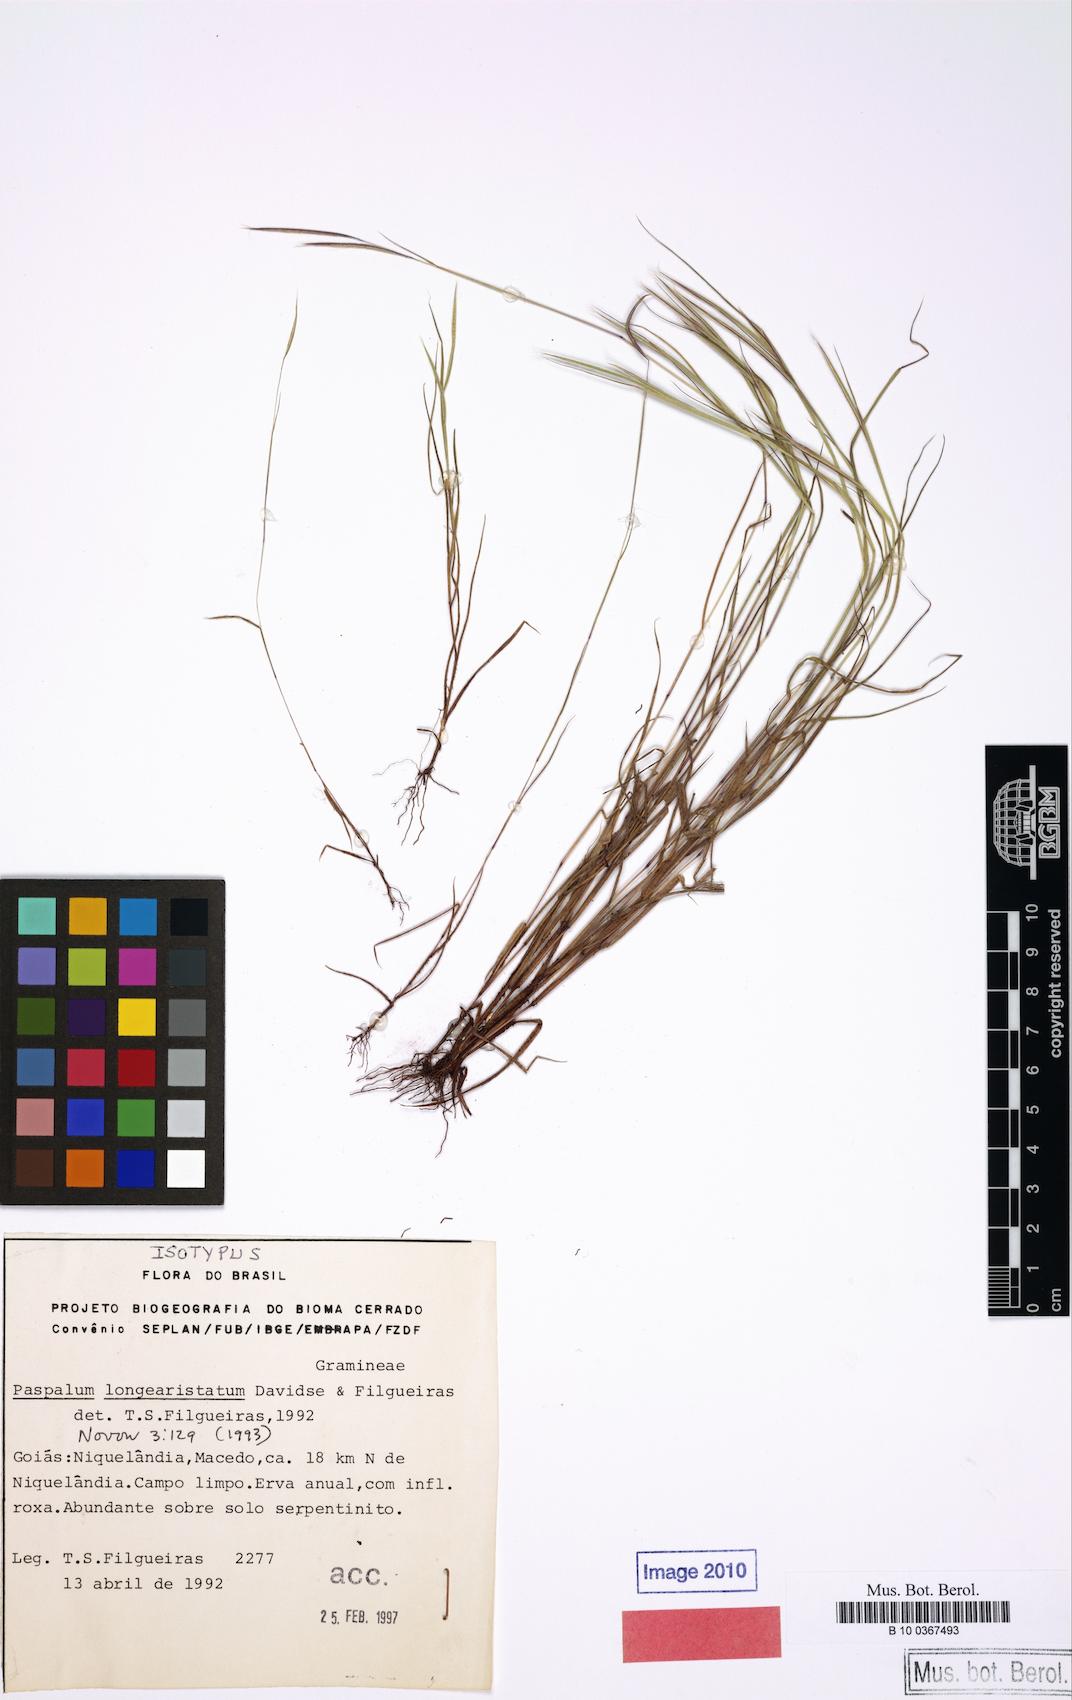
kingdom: Plantae
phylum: Tracheophyta
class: Liliopsida
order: Poales
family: Poaceae
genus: Paspalum
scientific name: Paspalum longiaristatum
